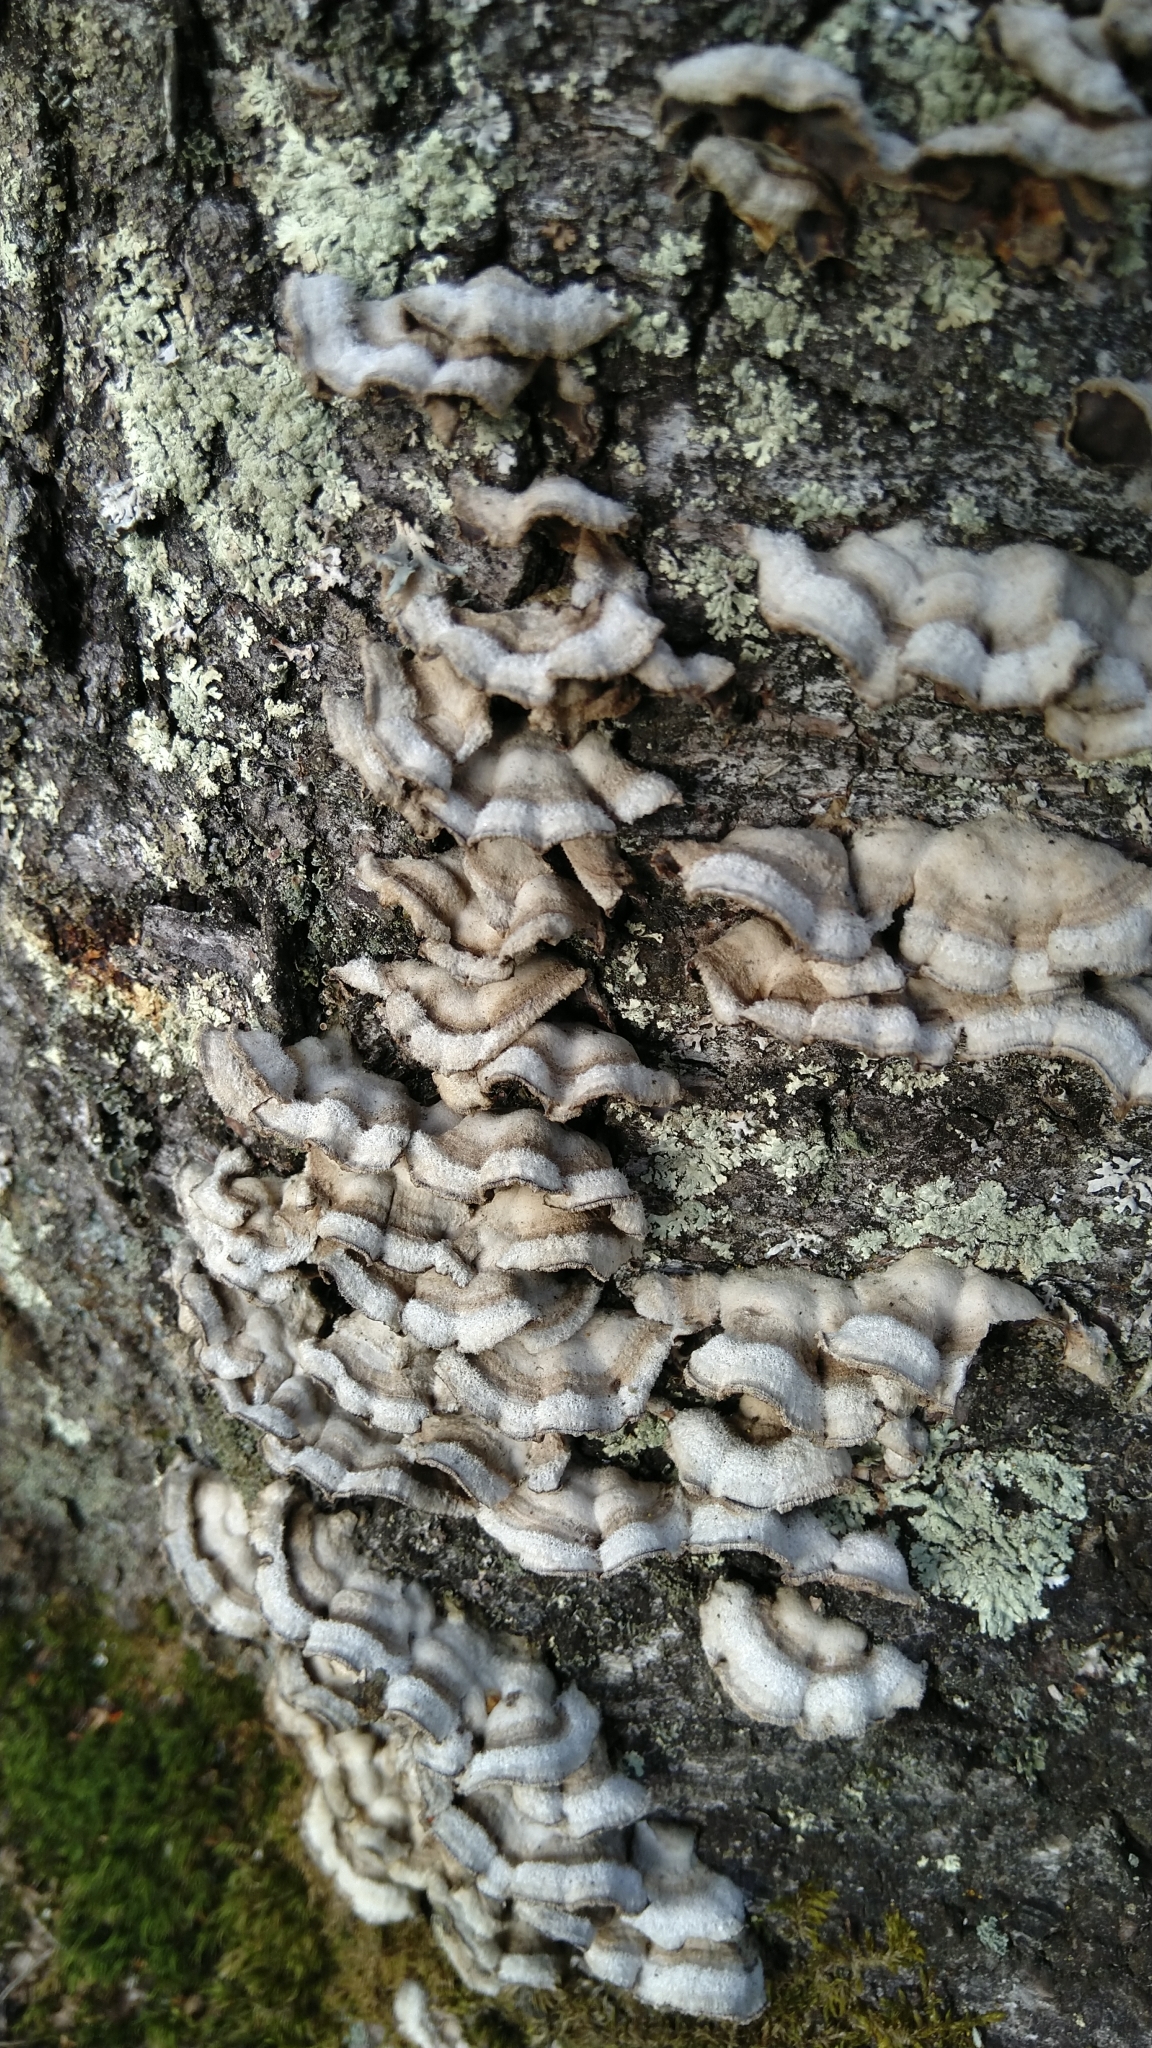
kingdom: Fungi
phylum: Basidiomycota
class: Agaricomycetes
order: Agaricales
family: Cyphellaceae
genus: Chondrostereum
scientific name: Chondrostereum purpureum
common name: Silver leaf disease
